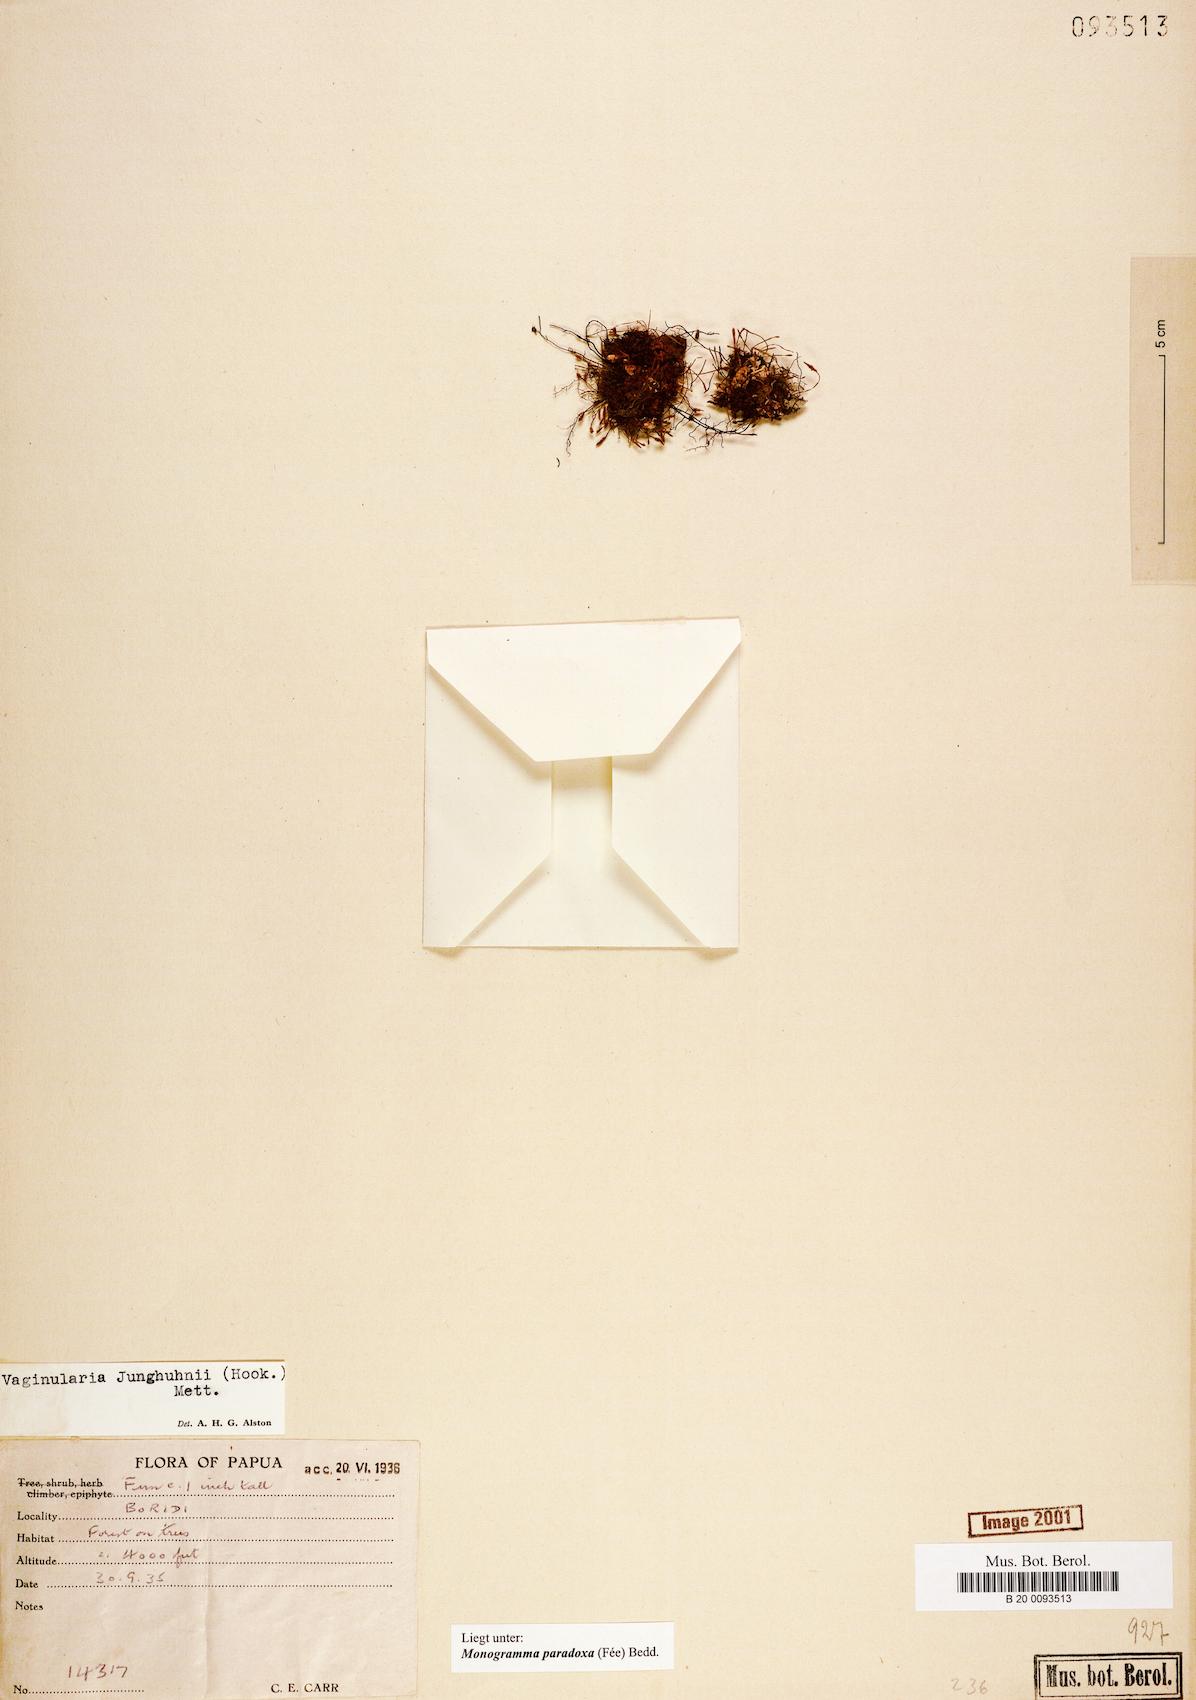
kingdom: Plantae
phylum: Tracheophyta
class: Polypodiopsida
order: Polypodiales
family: Pteridaceae
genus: Vaginularia
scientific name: Vaginularia paradoxa
